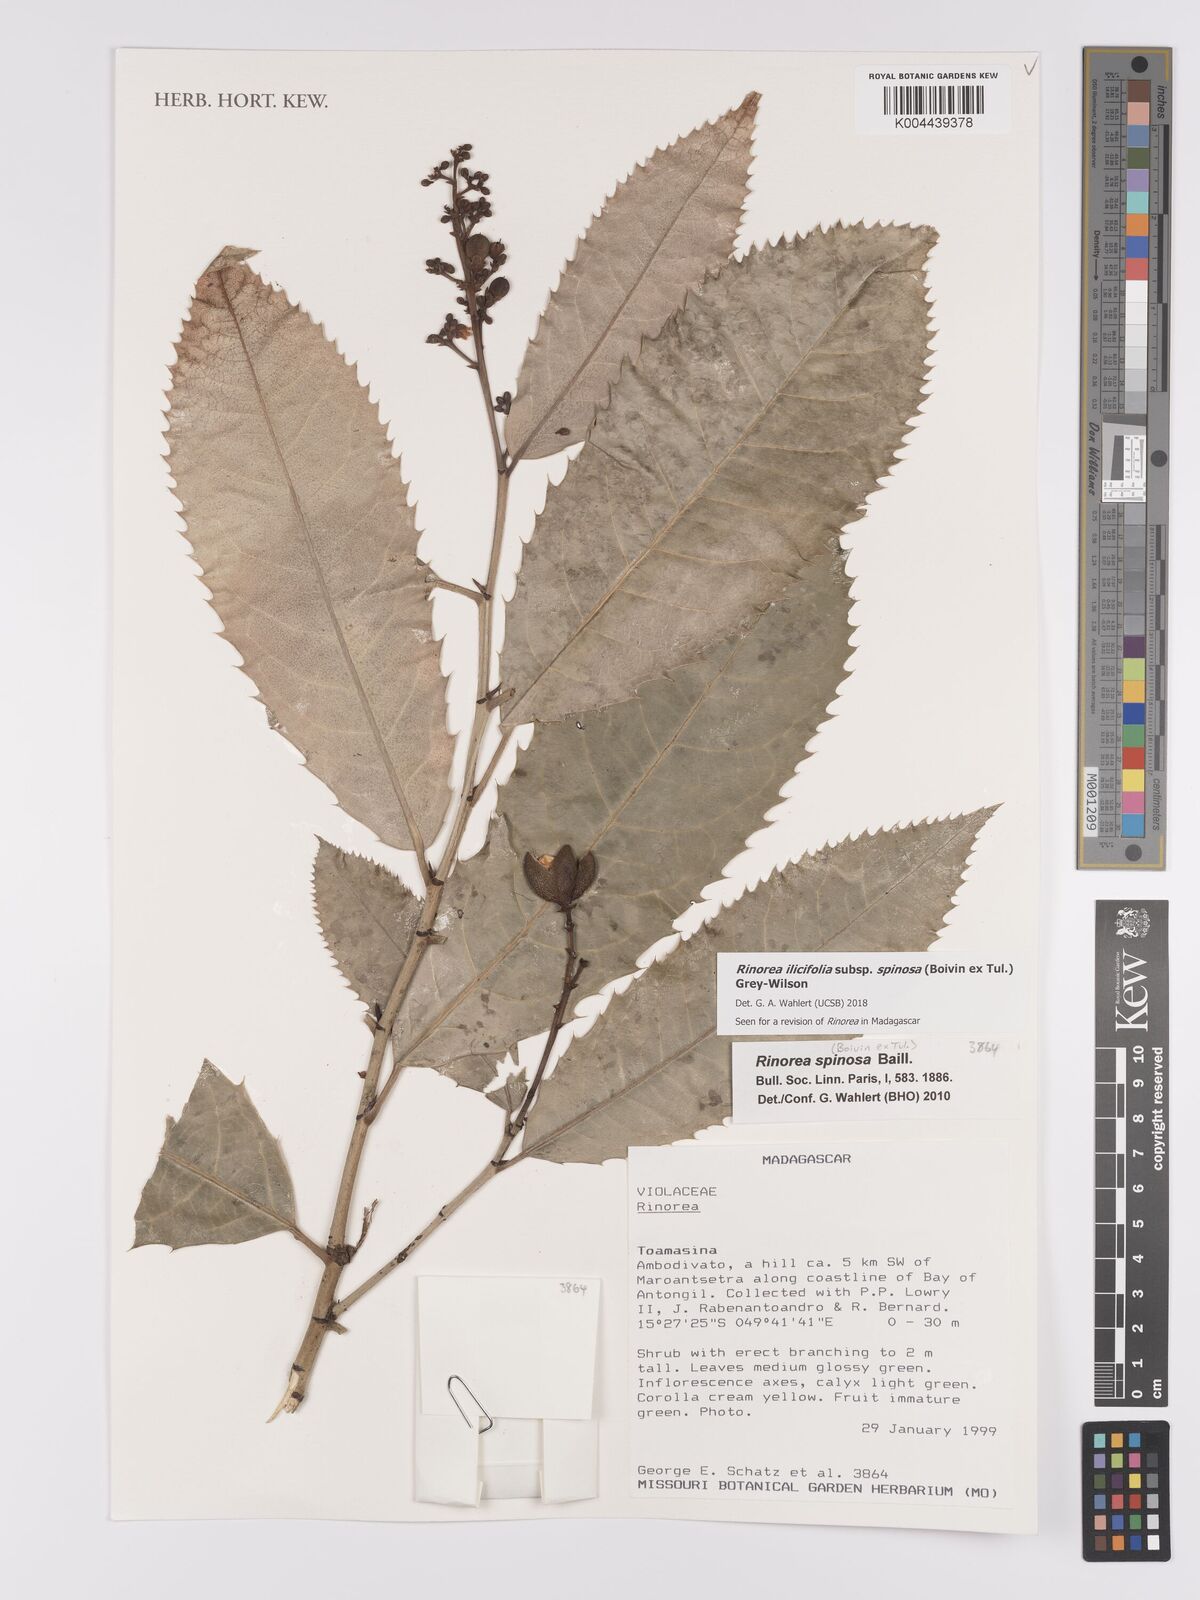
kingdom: Plantae
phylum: Tracheophyta
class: Magnoliopsida
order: Malpighiales
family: Violaceae
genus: Rinorea
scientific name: Rinorea spinosa
